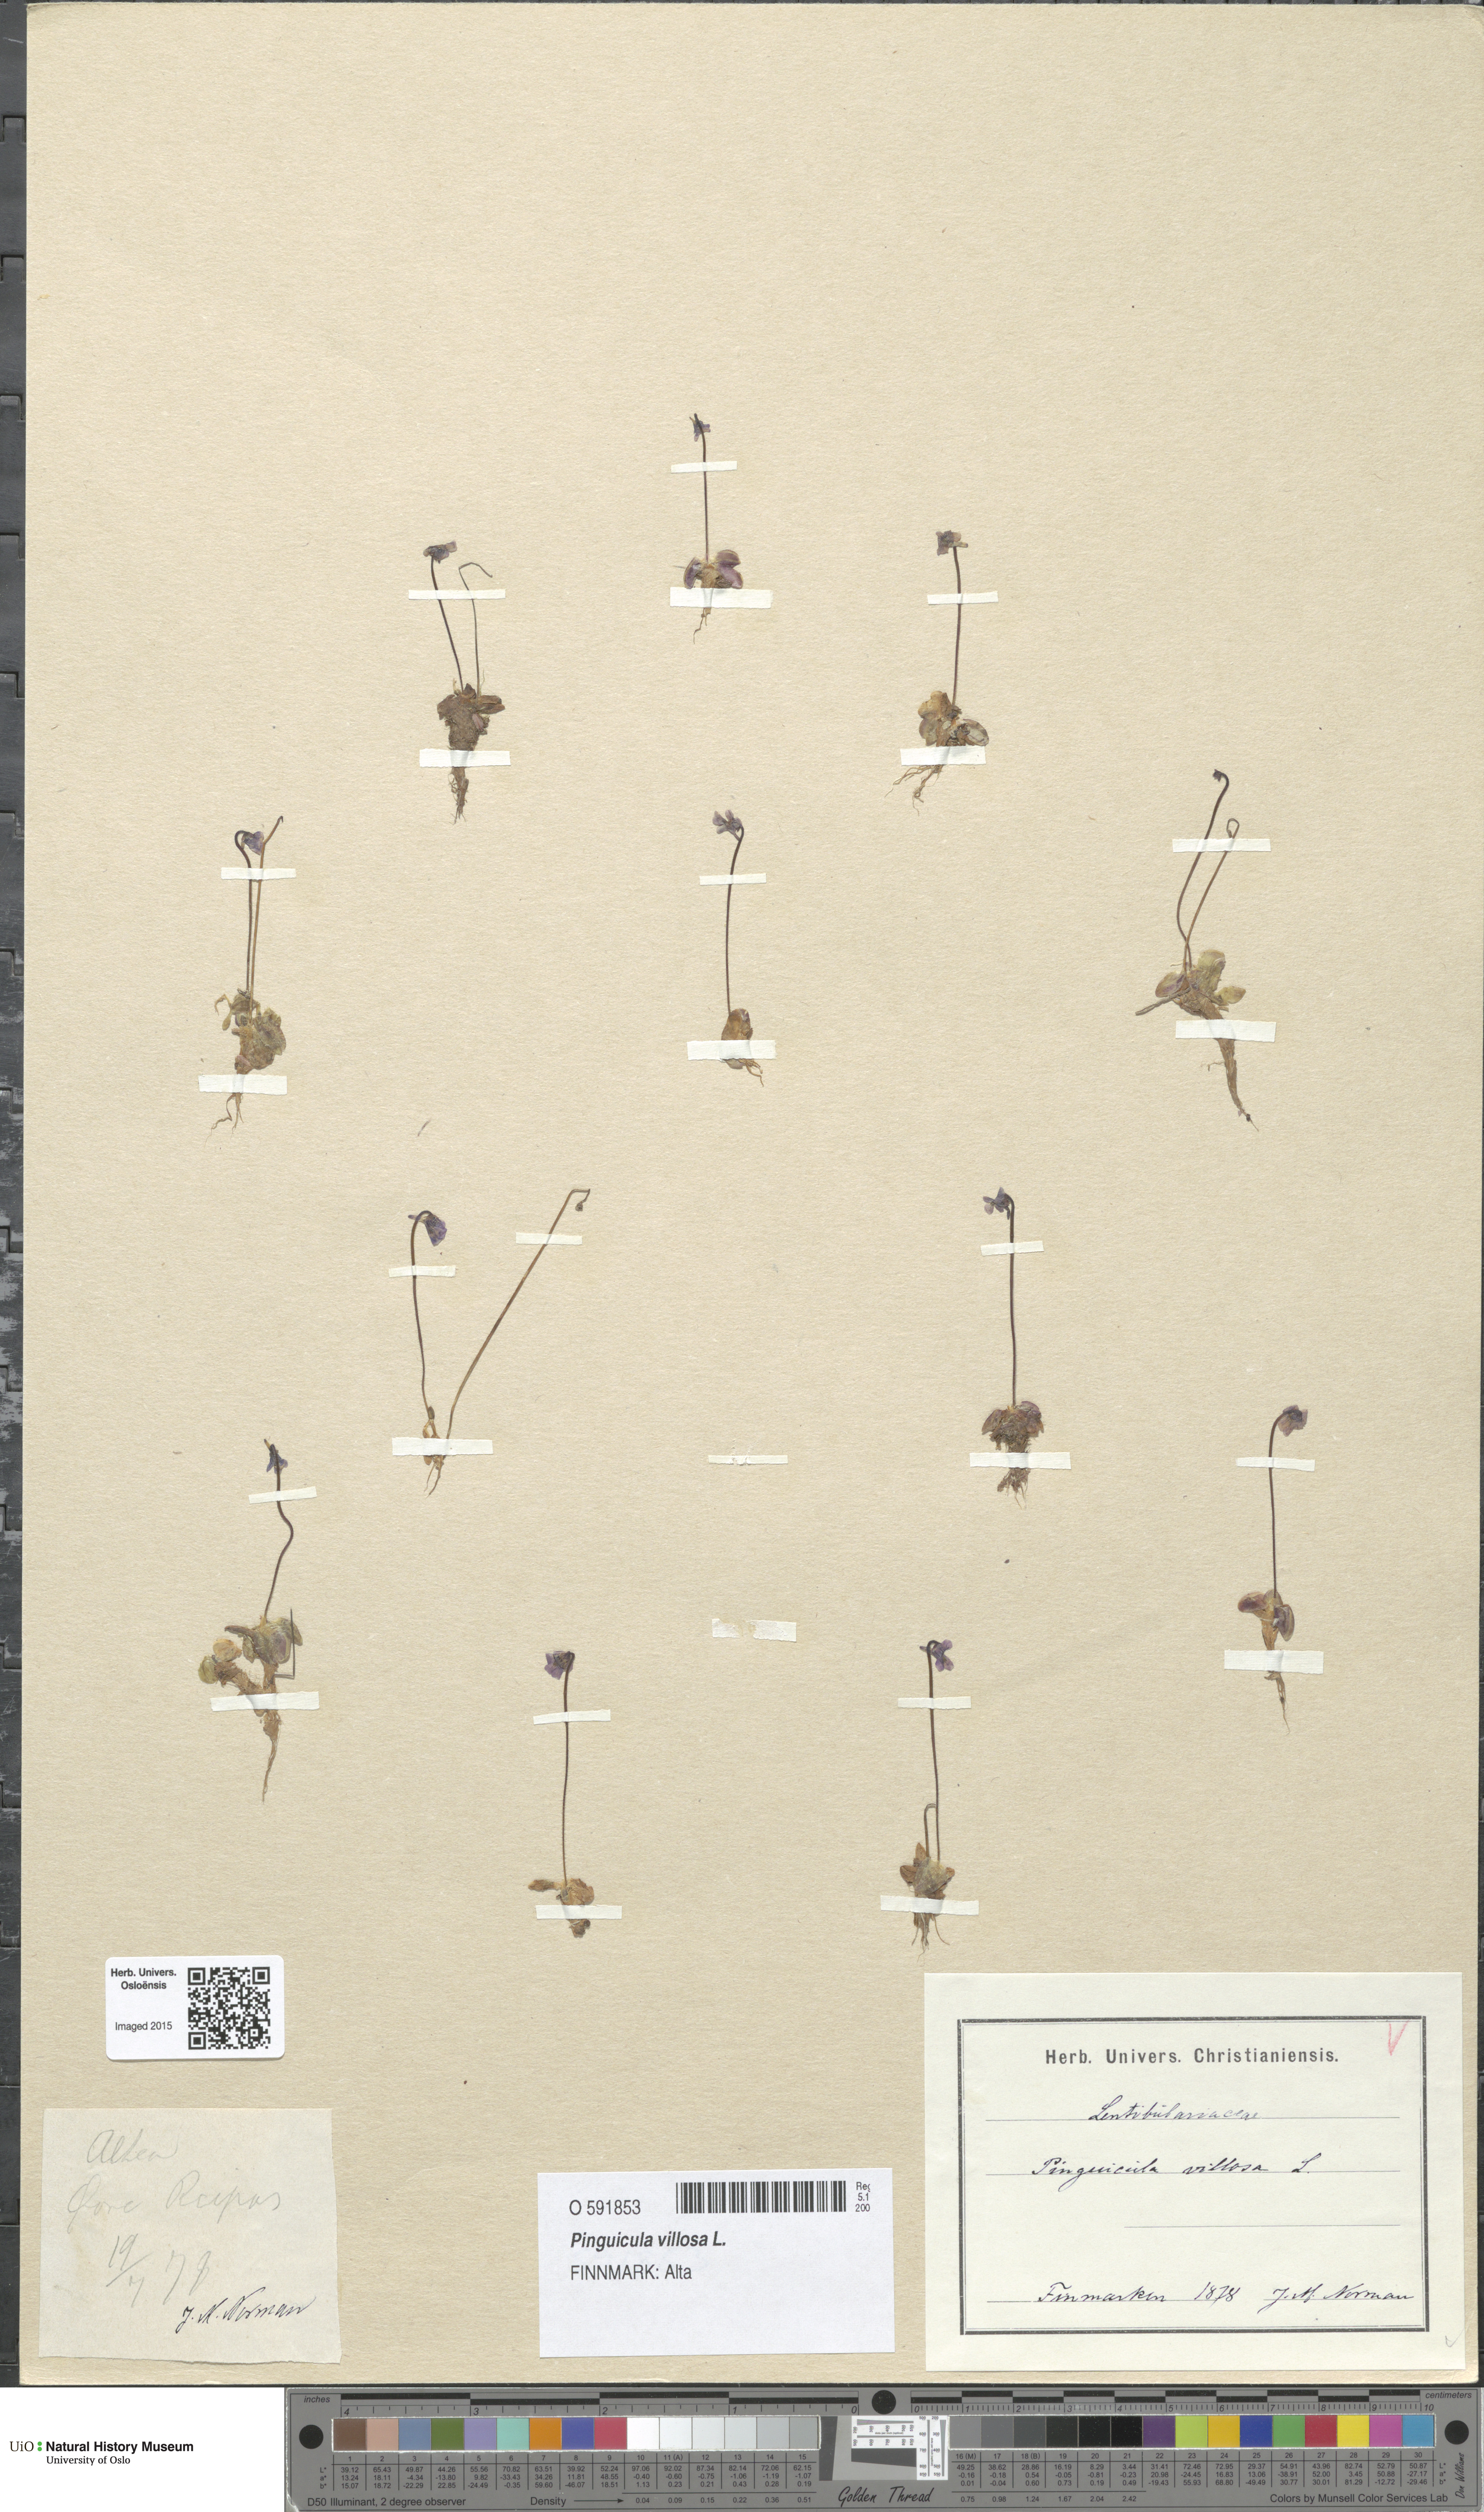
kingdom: Plantae
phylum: Tracheophyta
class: Magnoliopsida
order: Lamiales
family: Lentibulariaceae
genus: Pinguicula
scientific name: Pinguicula villosa
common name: Hairy butterwort
